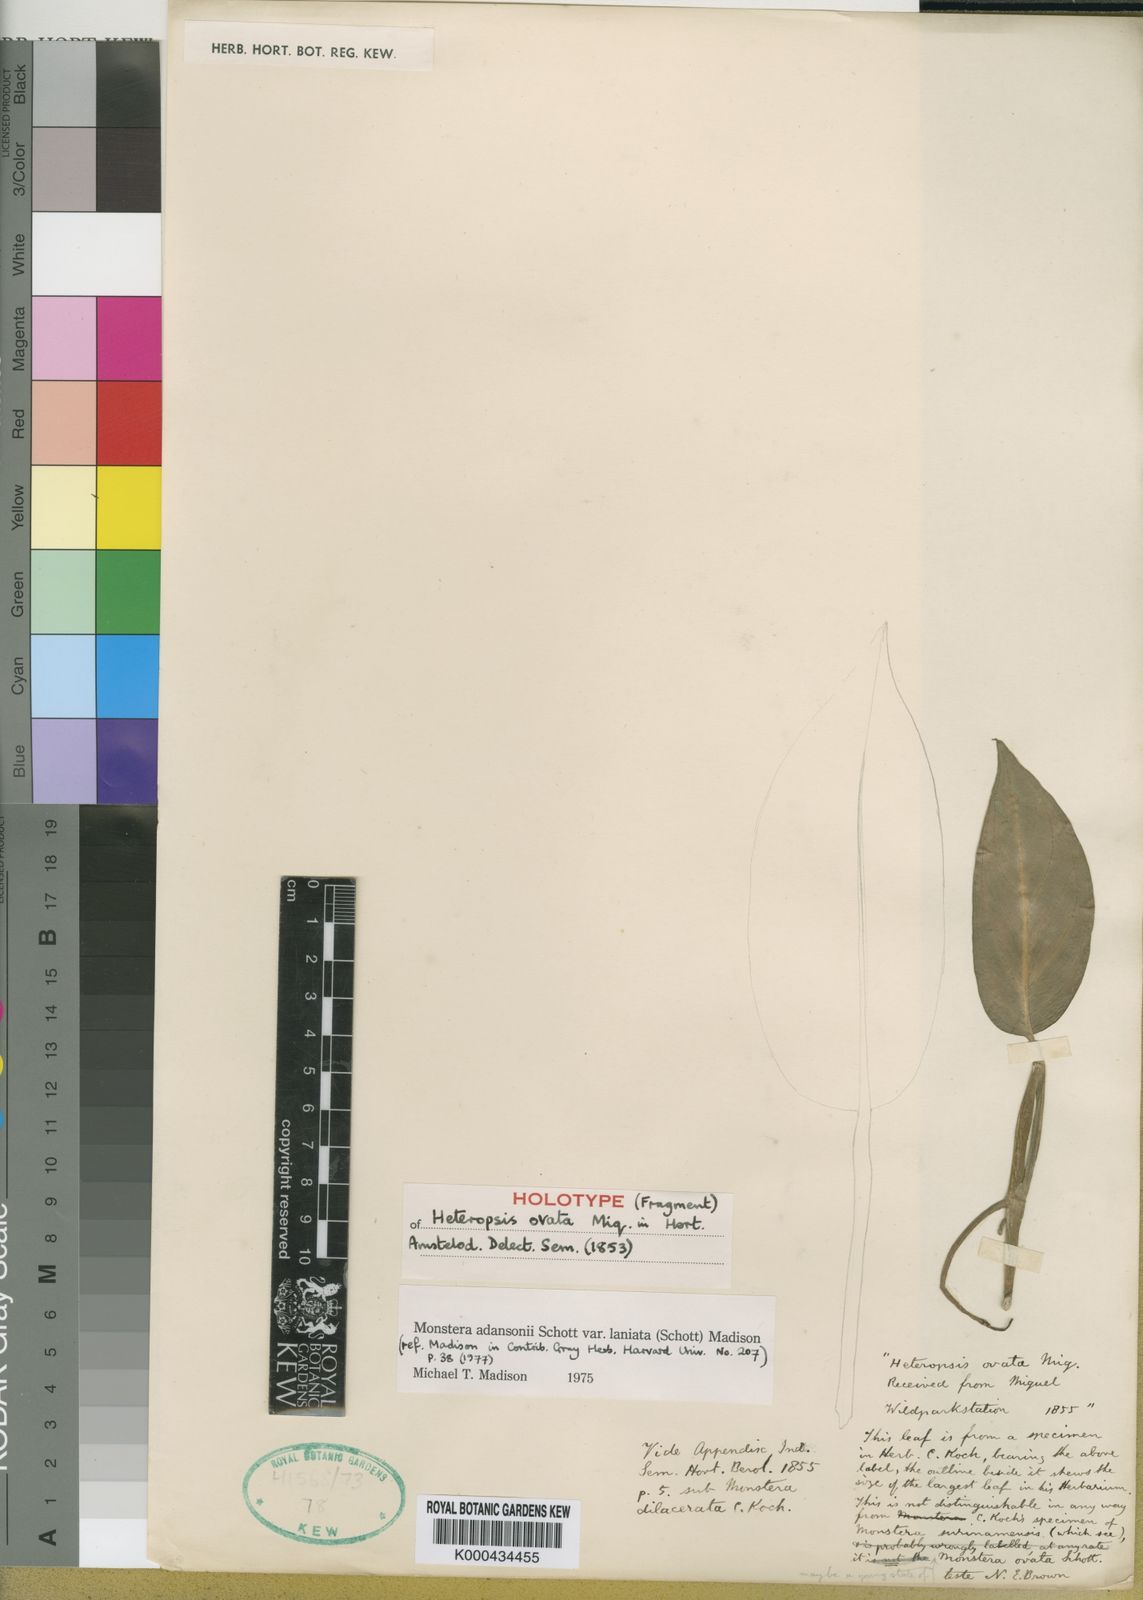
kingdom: Plantae
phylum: Tracheophyta
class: Liliopsida
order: Alismatales
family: Araceae
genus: Monstera
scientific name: Monstera adansonii
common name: Tarovine
